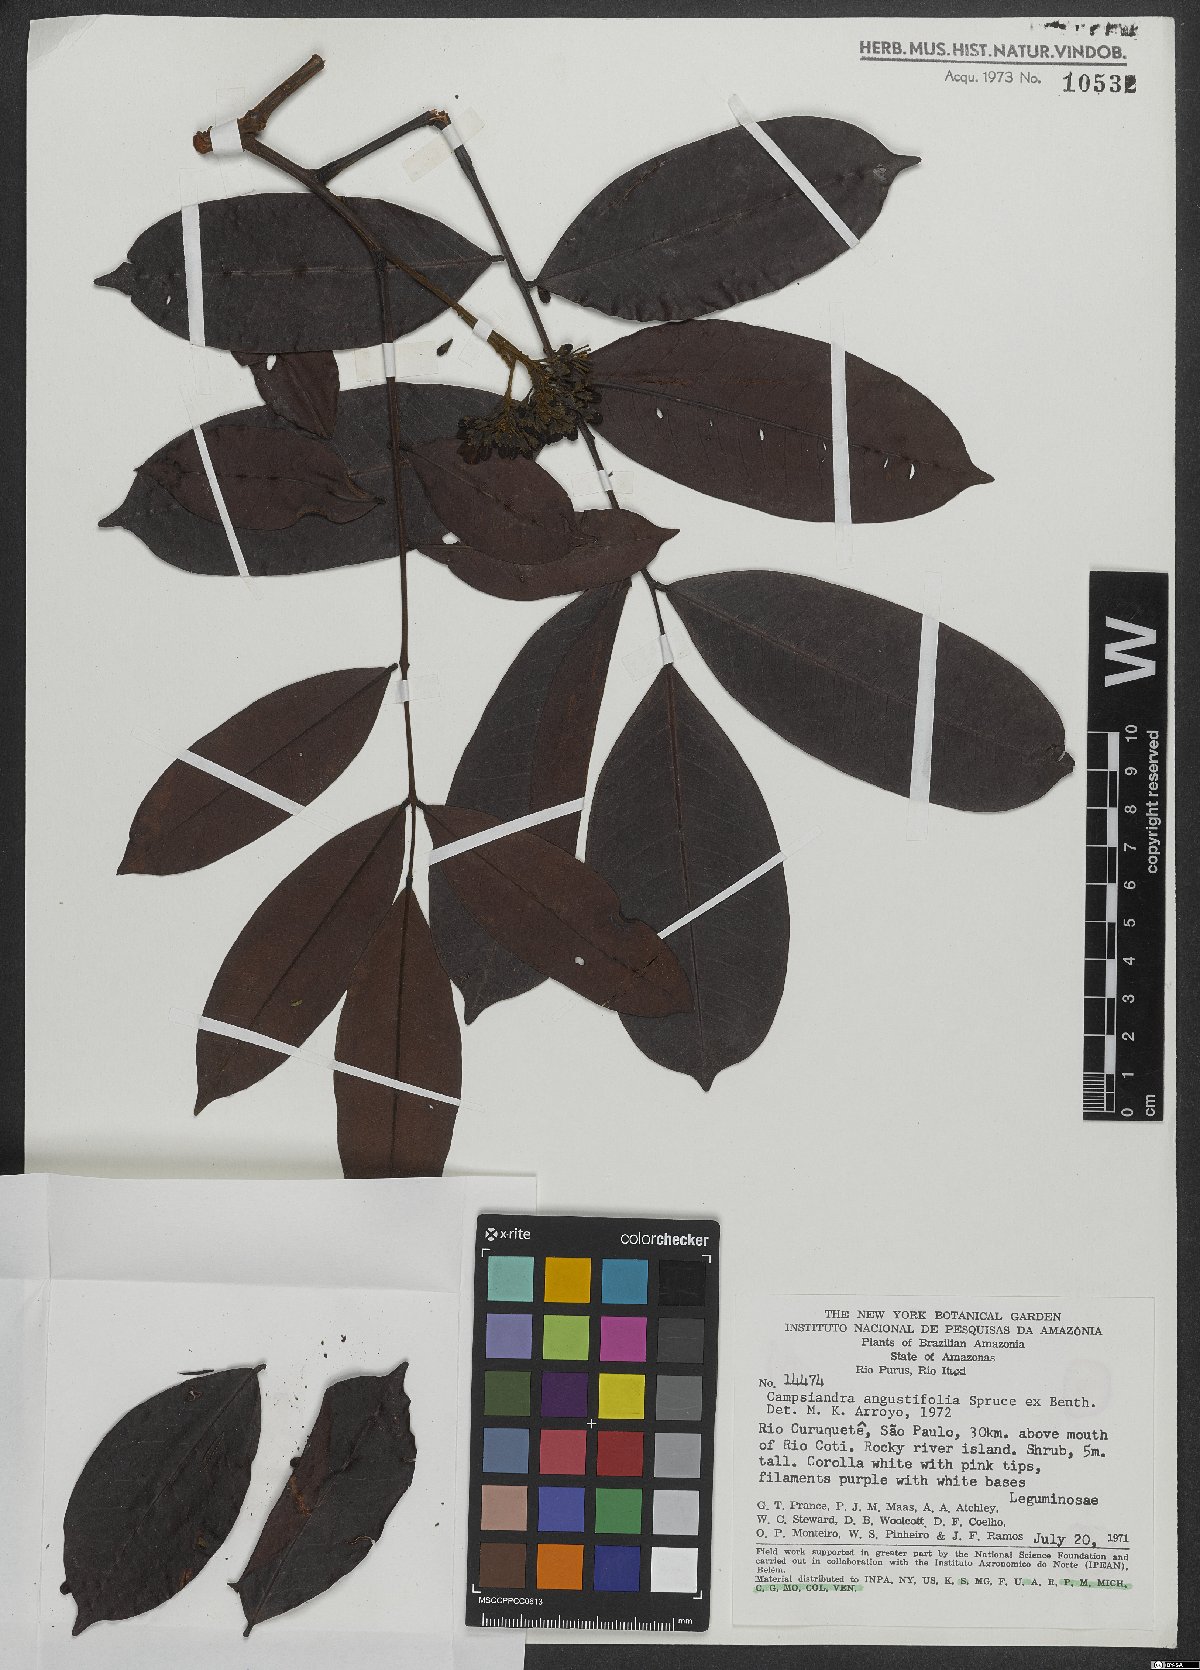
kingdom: Plantae
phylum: Tracheophyta
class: Magnoliopsida
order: Fabales
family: Fabaceae
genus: Campsiandra
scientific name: Campsiandra angustifolia
